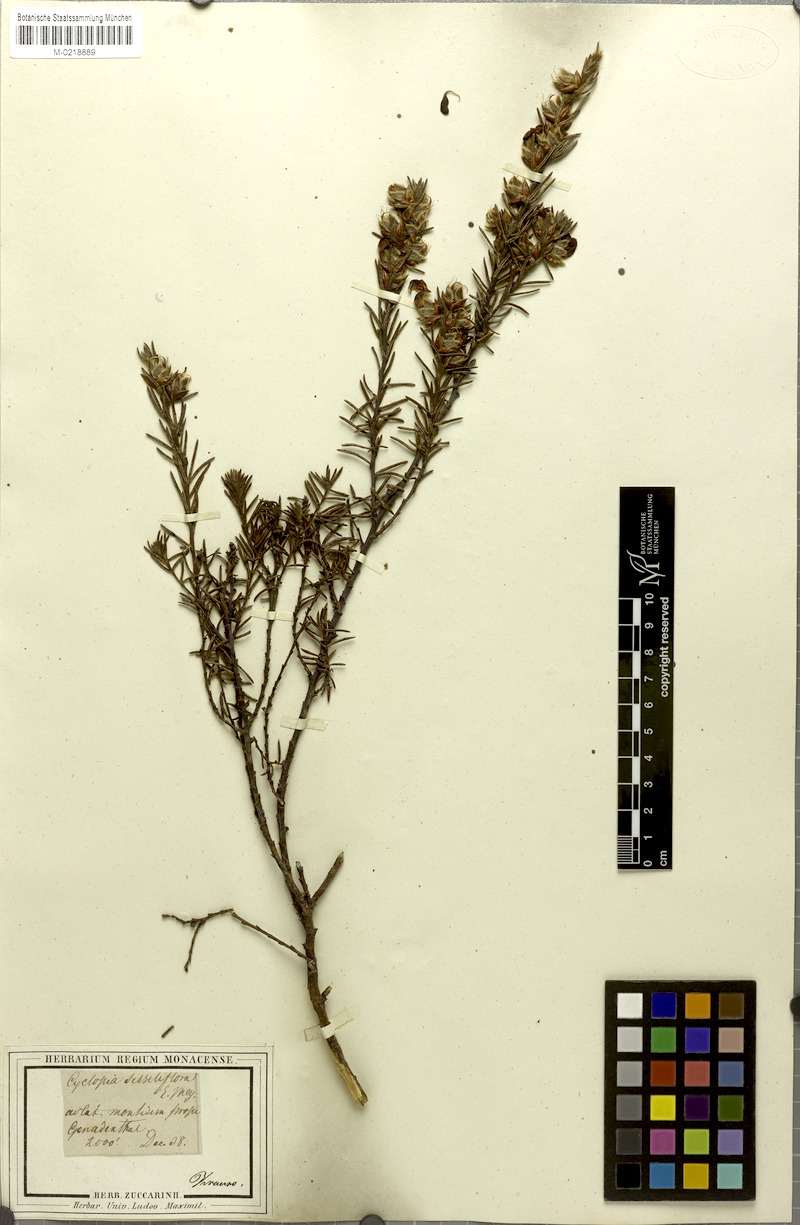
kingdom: Plantae
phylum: Tracheophyta
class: Magnoliopsida
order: Fabales
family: Fabaceae
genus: Cyclopia
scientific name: Cyclopia meyeriana
